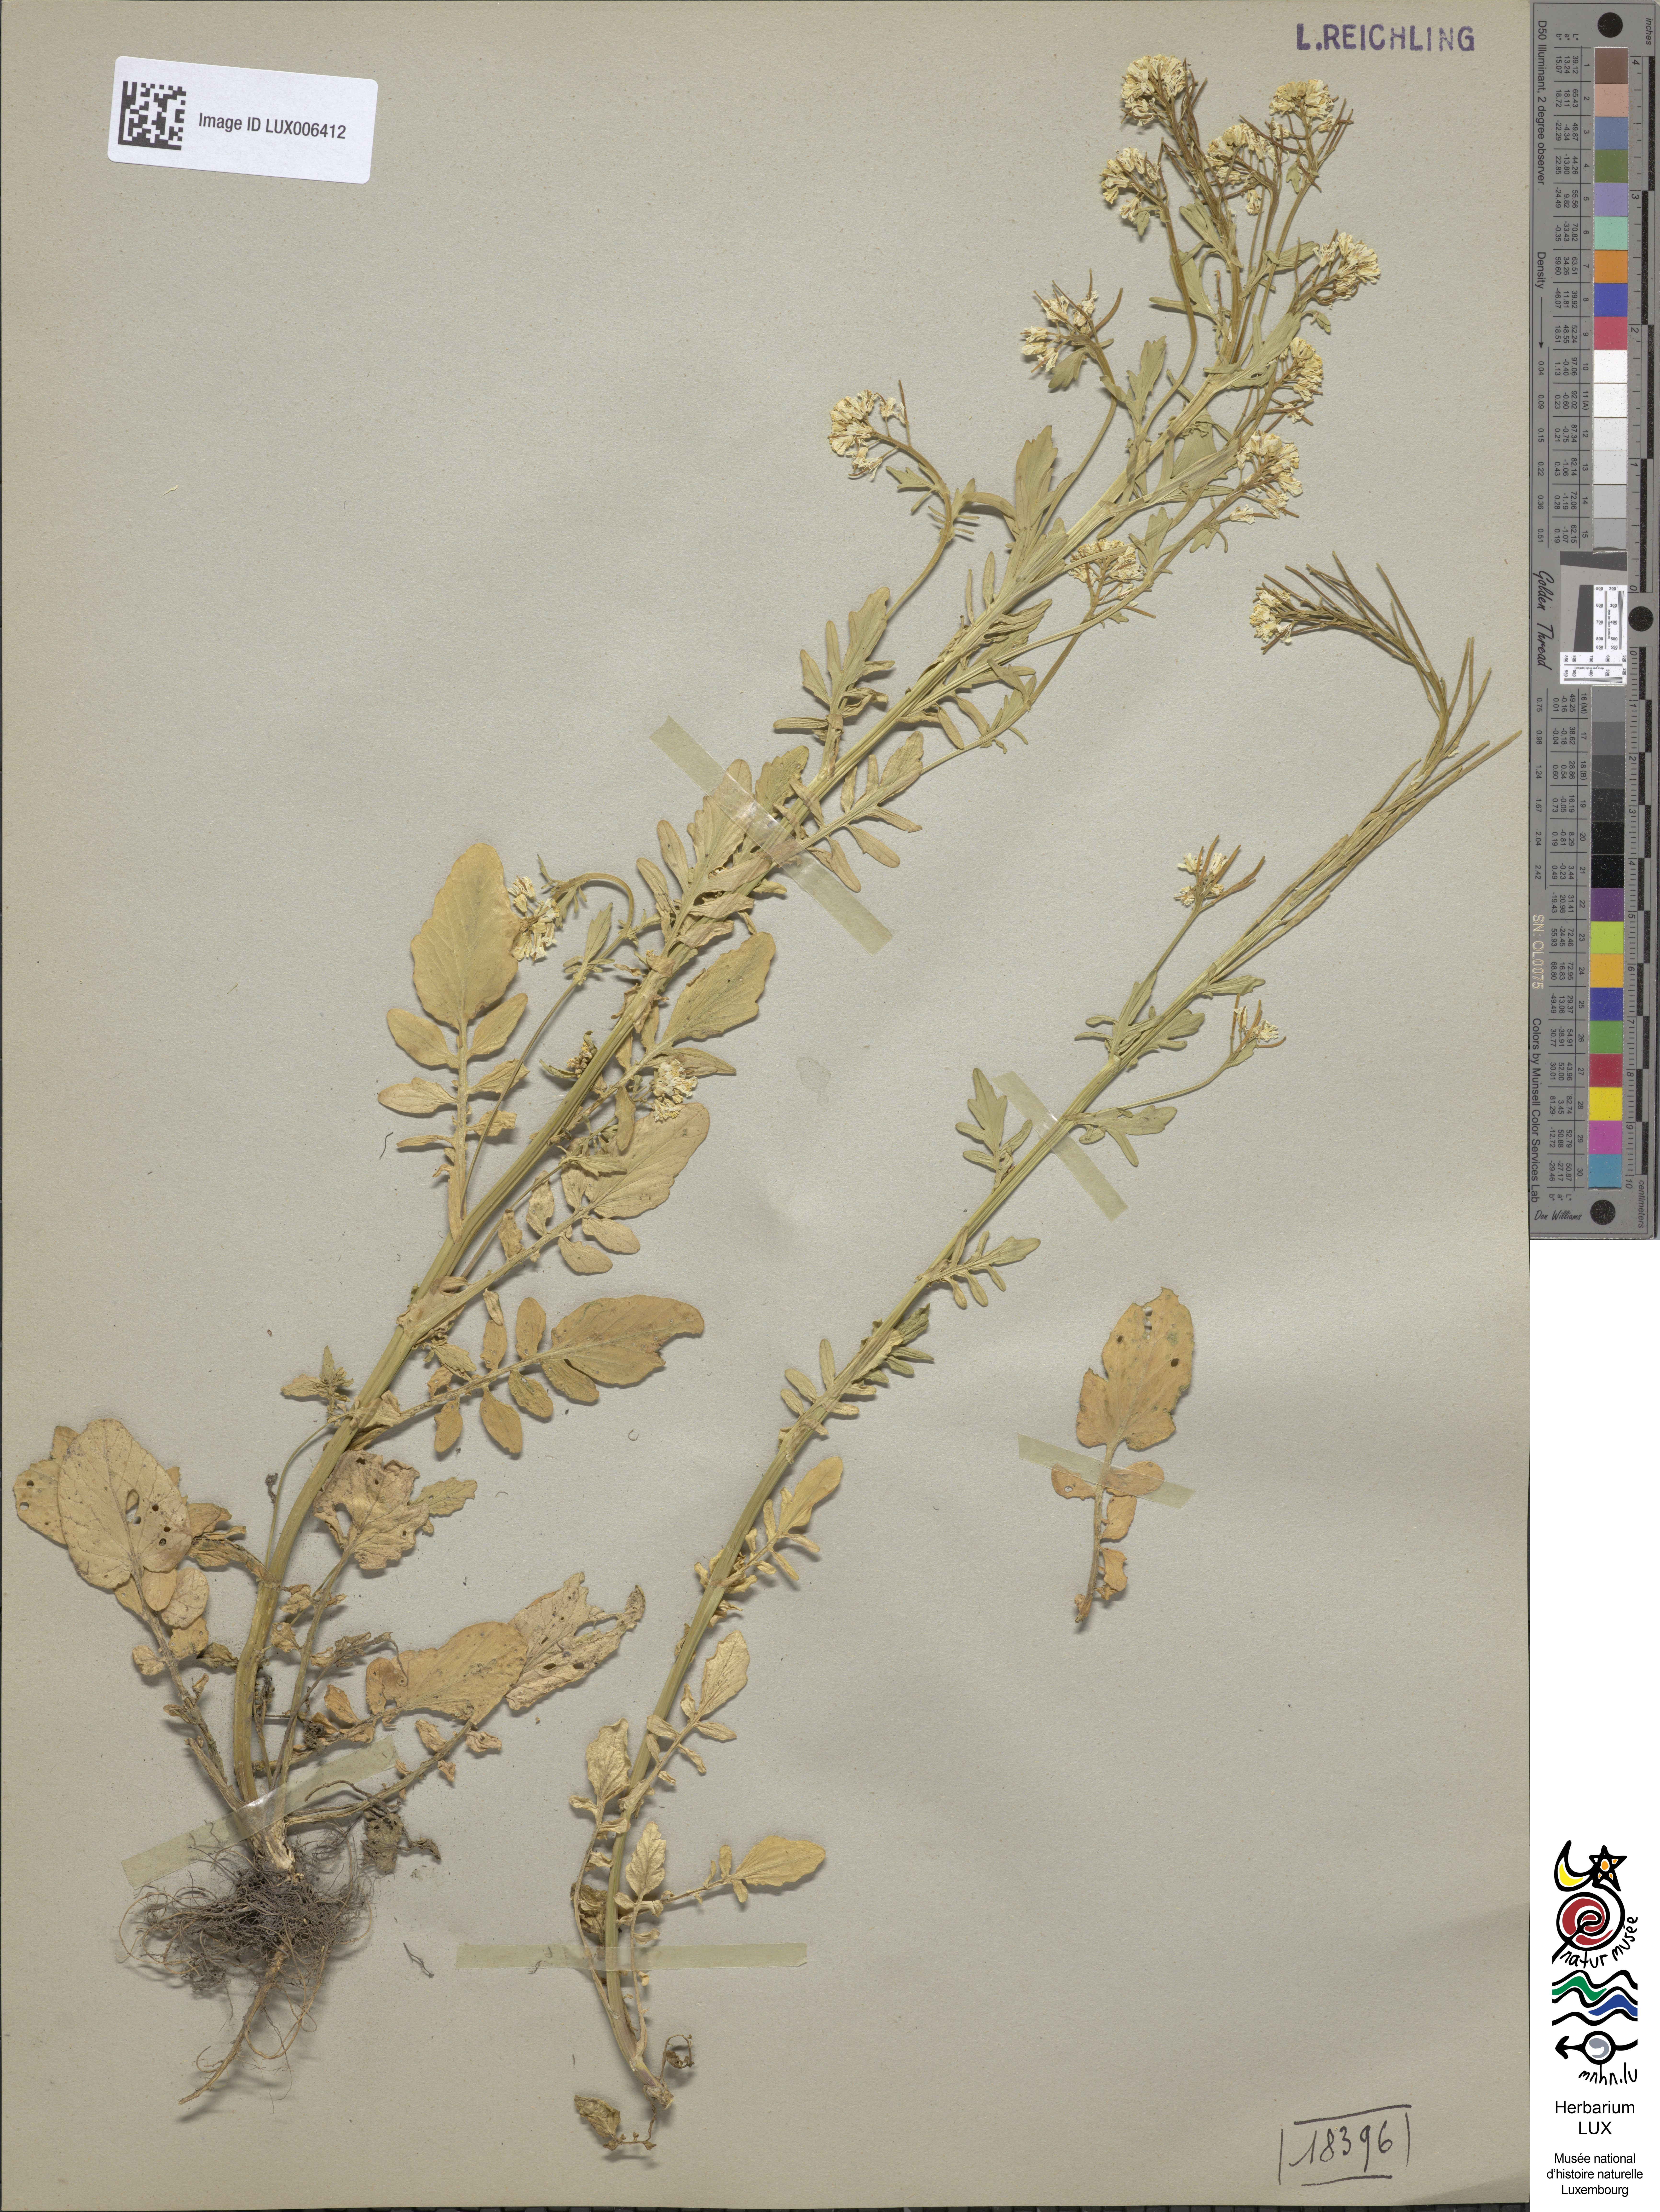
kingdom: Plantae
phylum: Tracheophyta
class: Magnoliopsida
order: Brassicales
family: Brassicaceae
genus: Barbarea
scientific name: Barbarea intermedia
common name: Medium-flowered winter-cress
